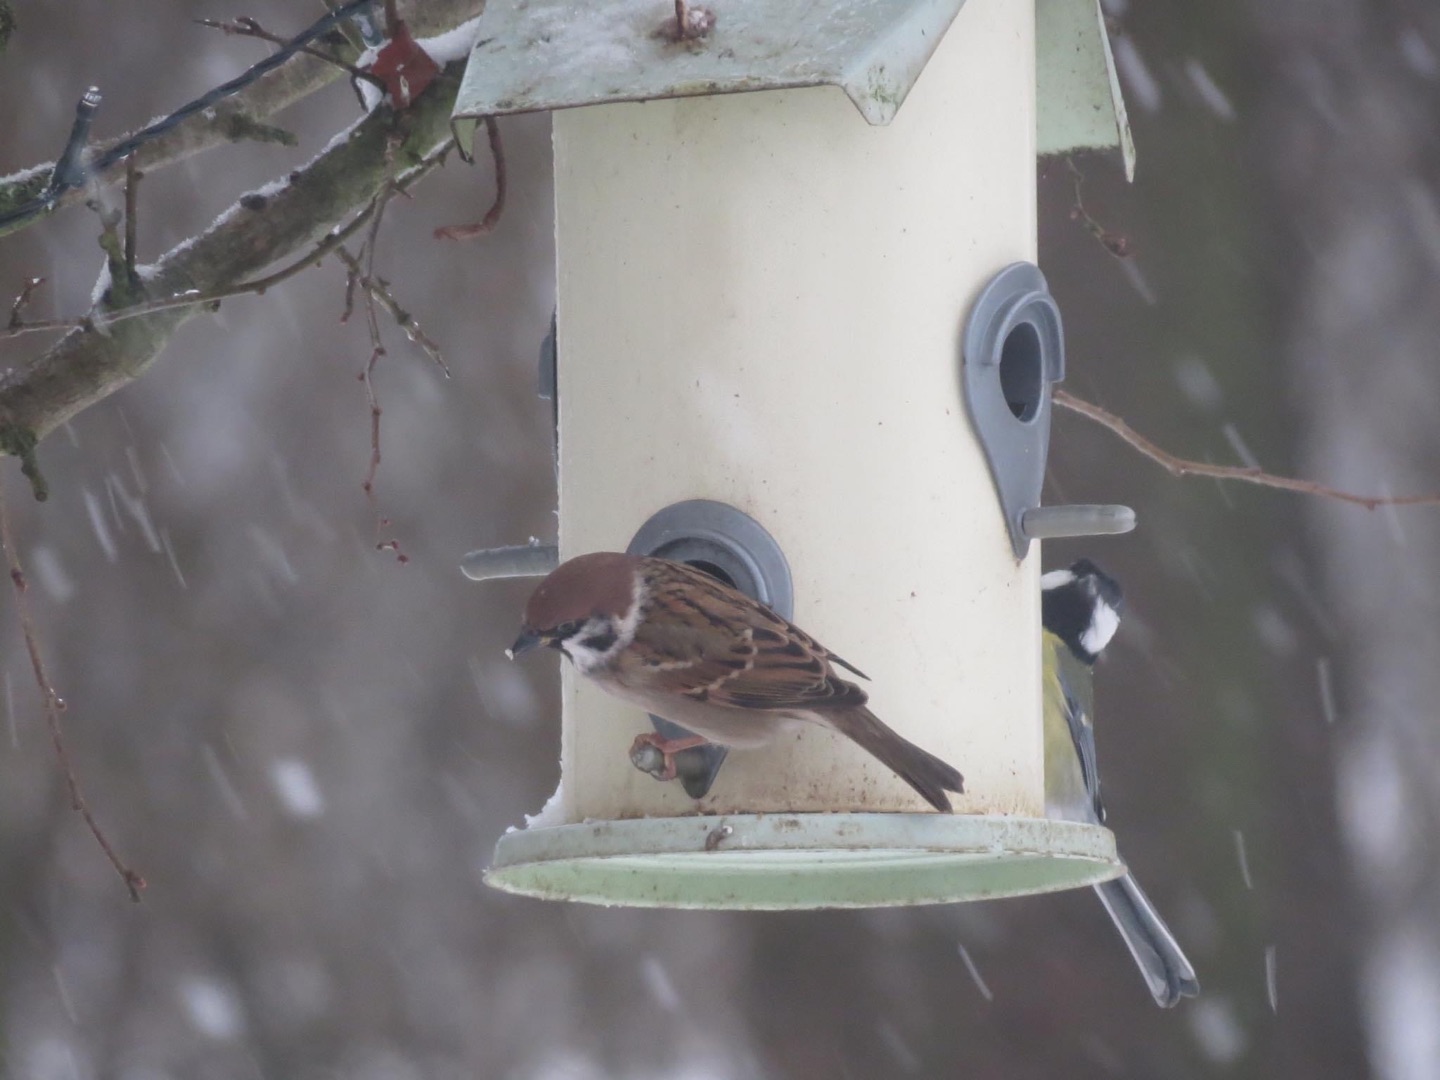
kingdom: Animalia
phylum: Chordata
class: Aves
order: Passeriformes
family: Passeridae
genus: Passer
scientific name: Passer montanus
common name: Skovspurv
